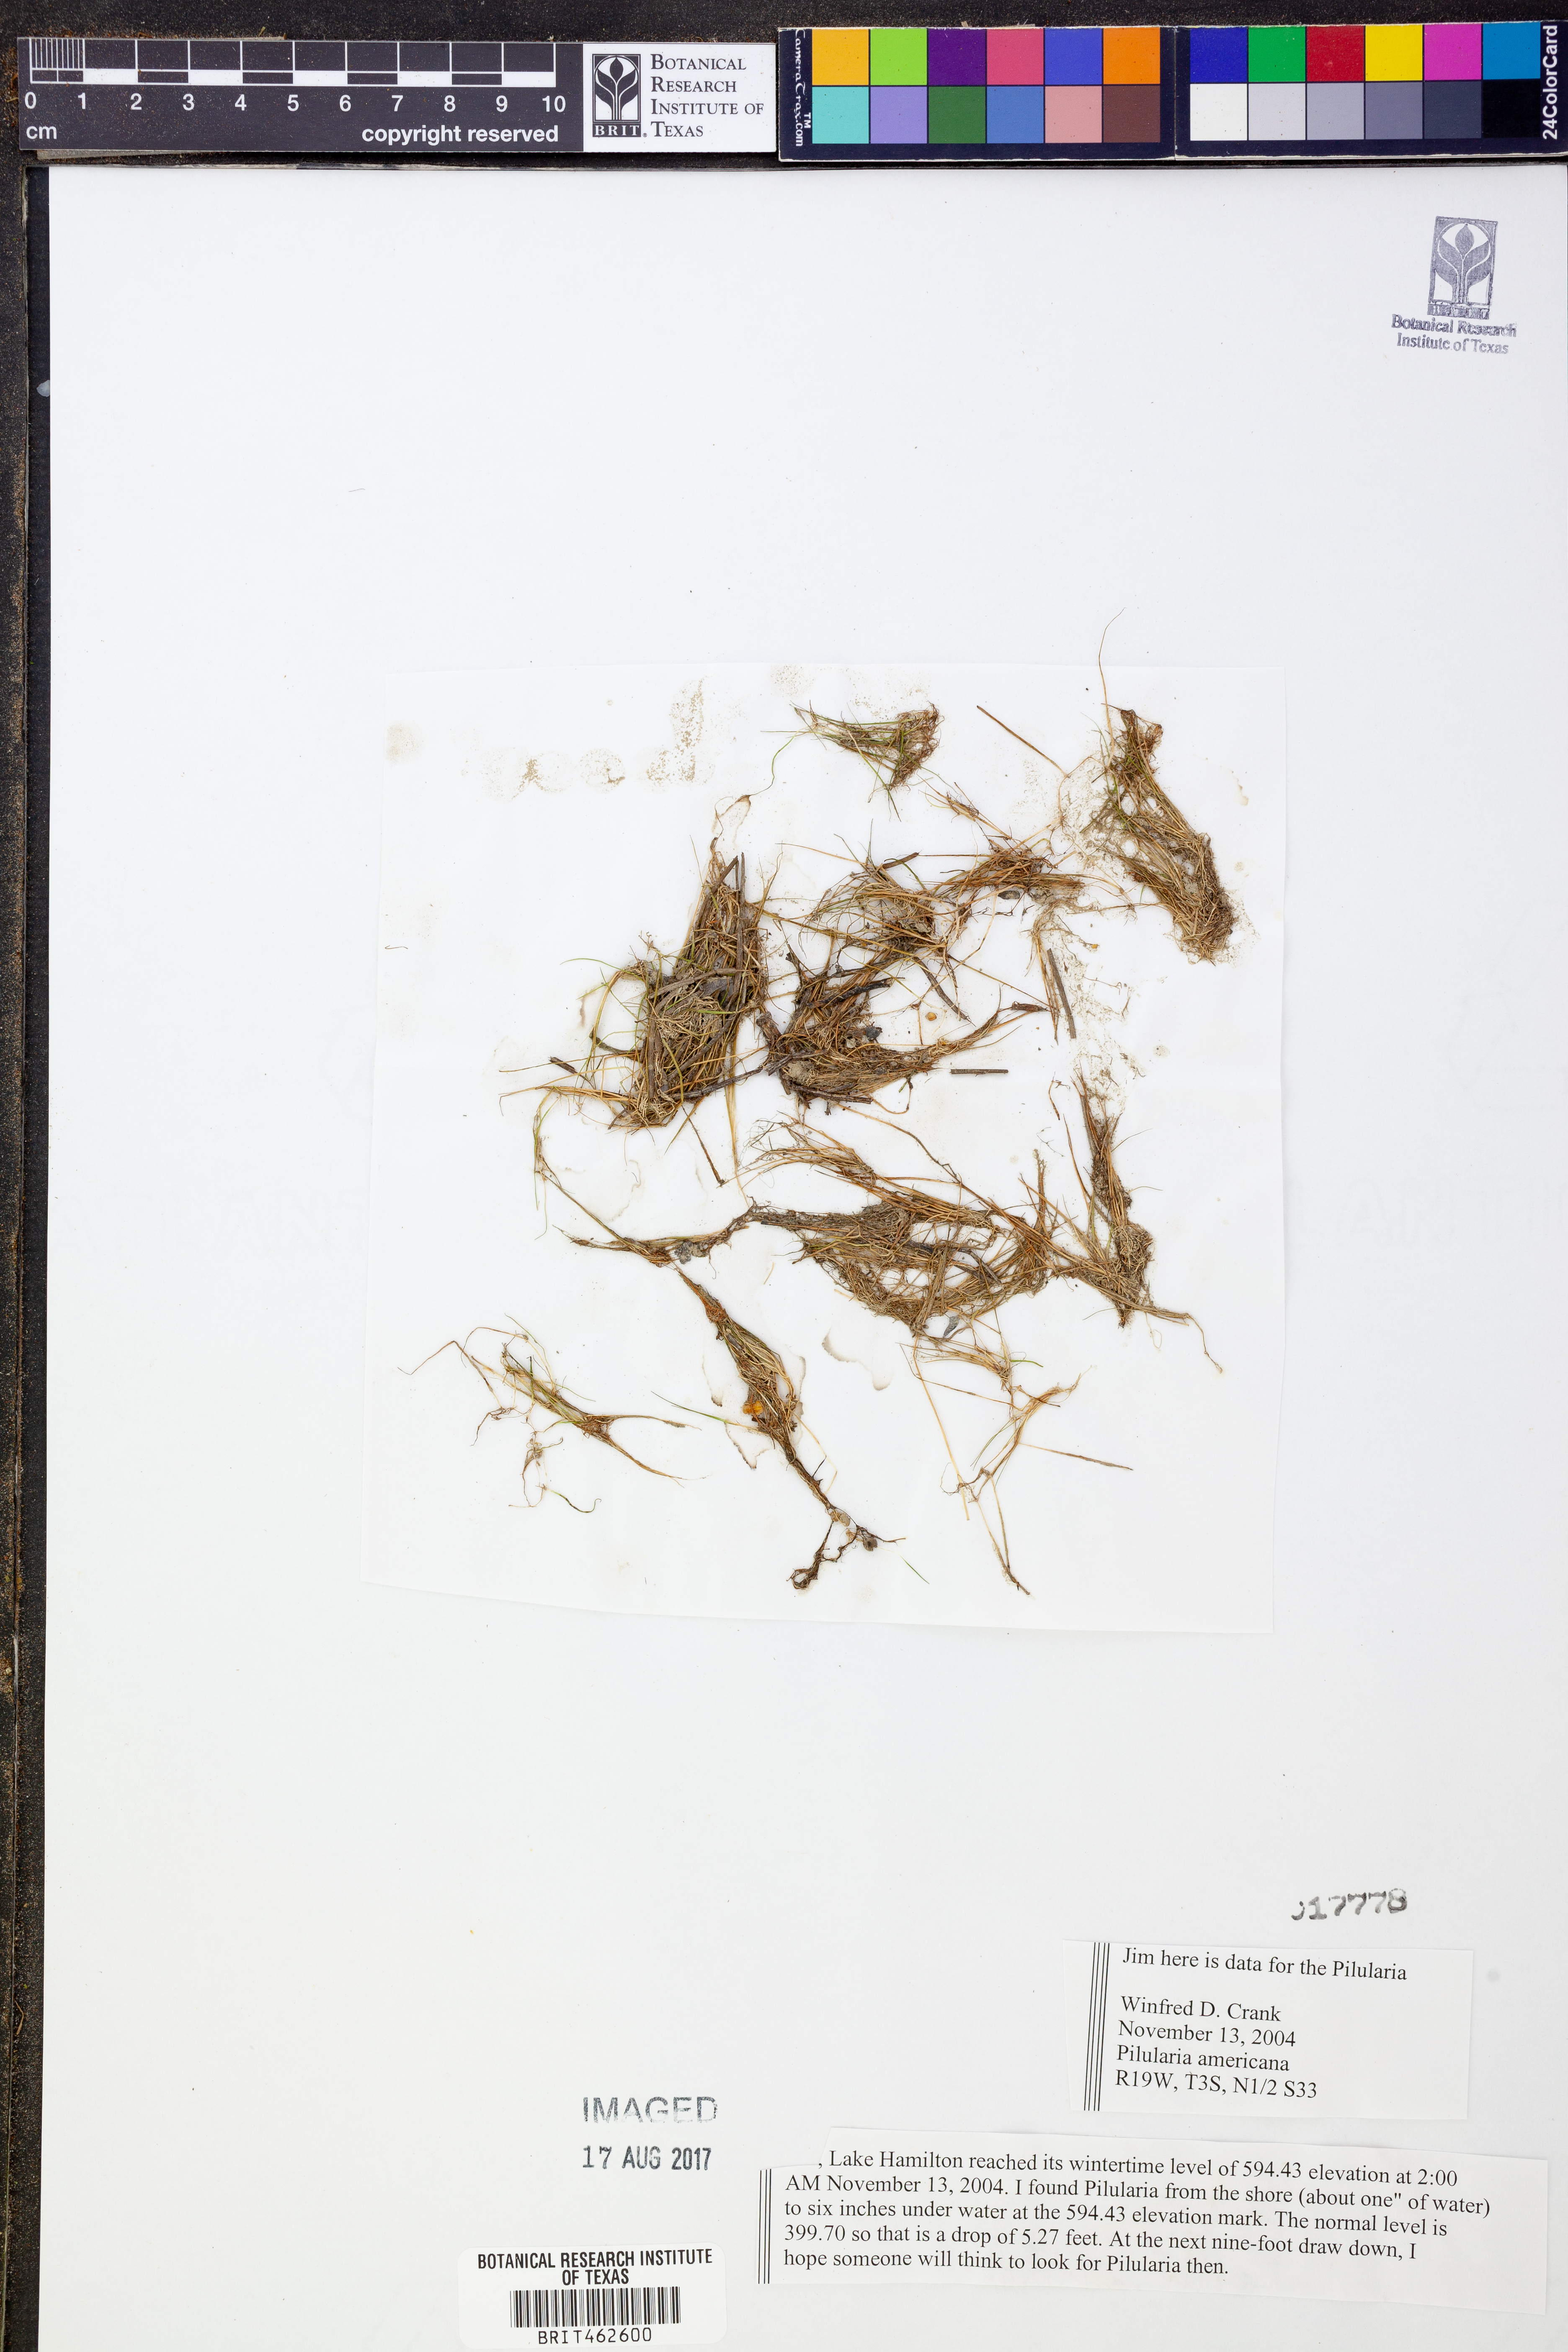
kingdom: Plantae
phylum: Tracheophyta
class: Polypodiopsida
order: Salviniales
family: Marsileaceae
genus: Pilularia
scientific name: Pilularia americana
